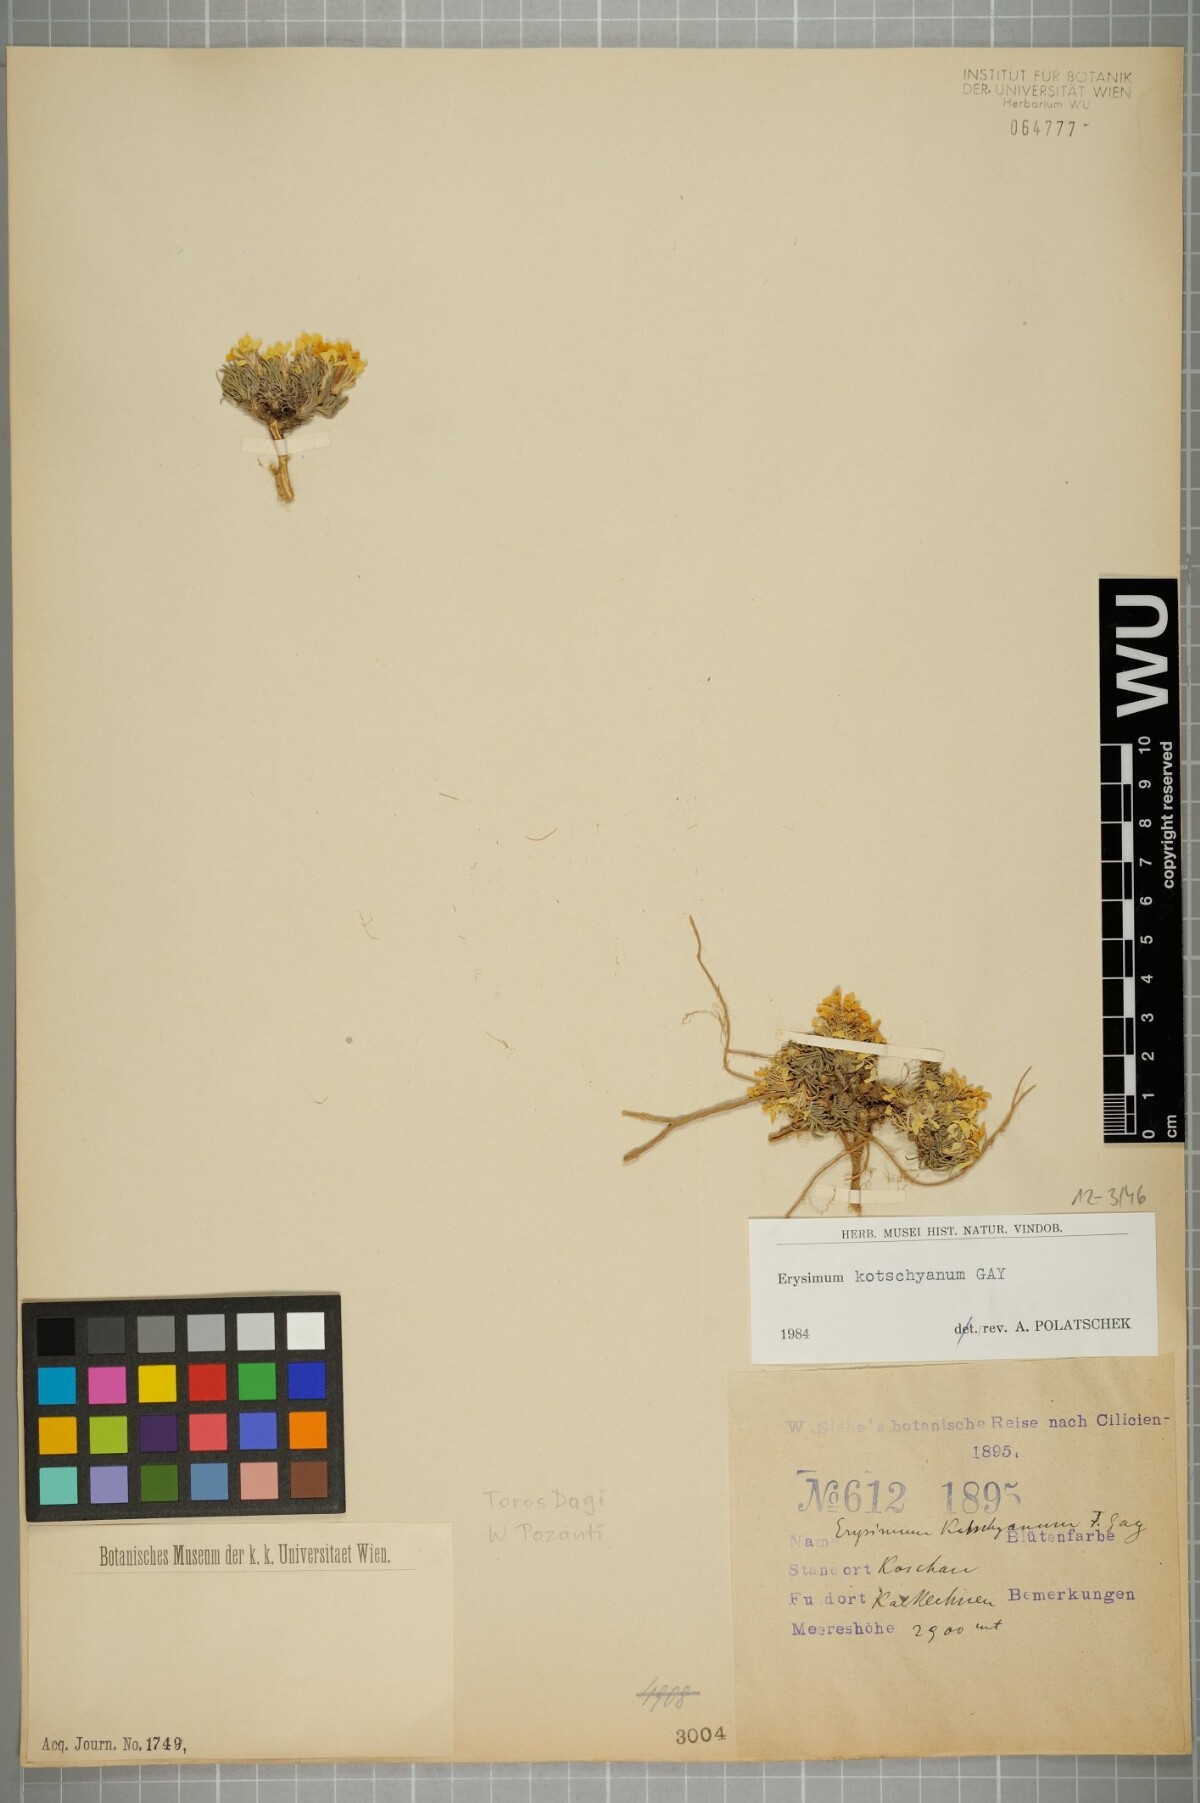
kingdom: Plantae
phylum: Tracheophyta
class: Magnoliopsida
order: Brassicales
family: Brassicaceae
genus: Erysimum
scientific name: Erysimum kotschyanum
